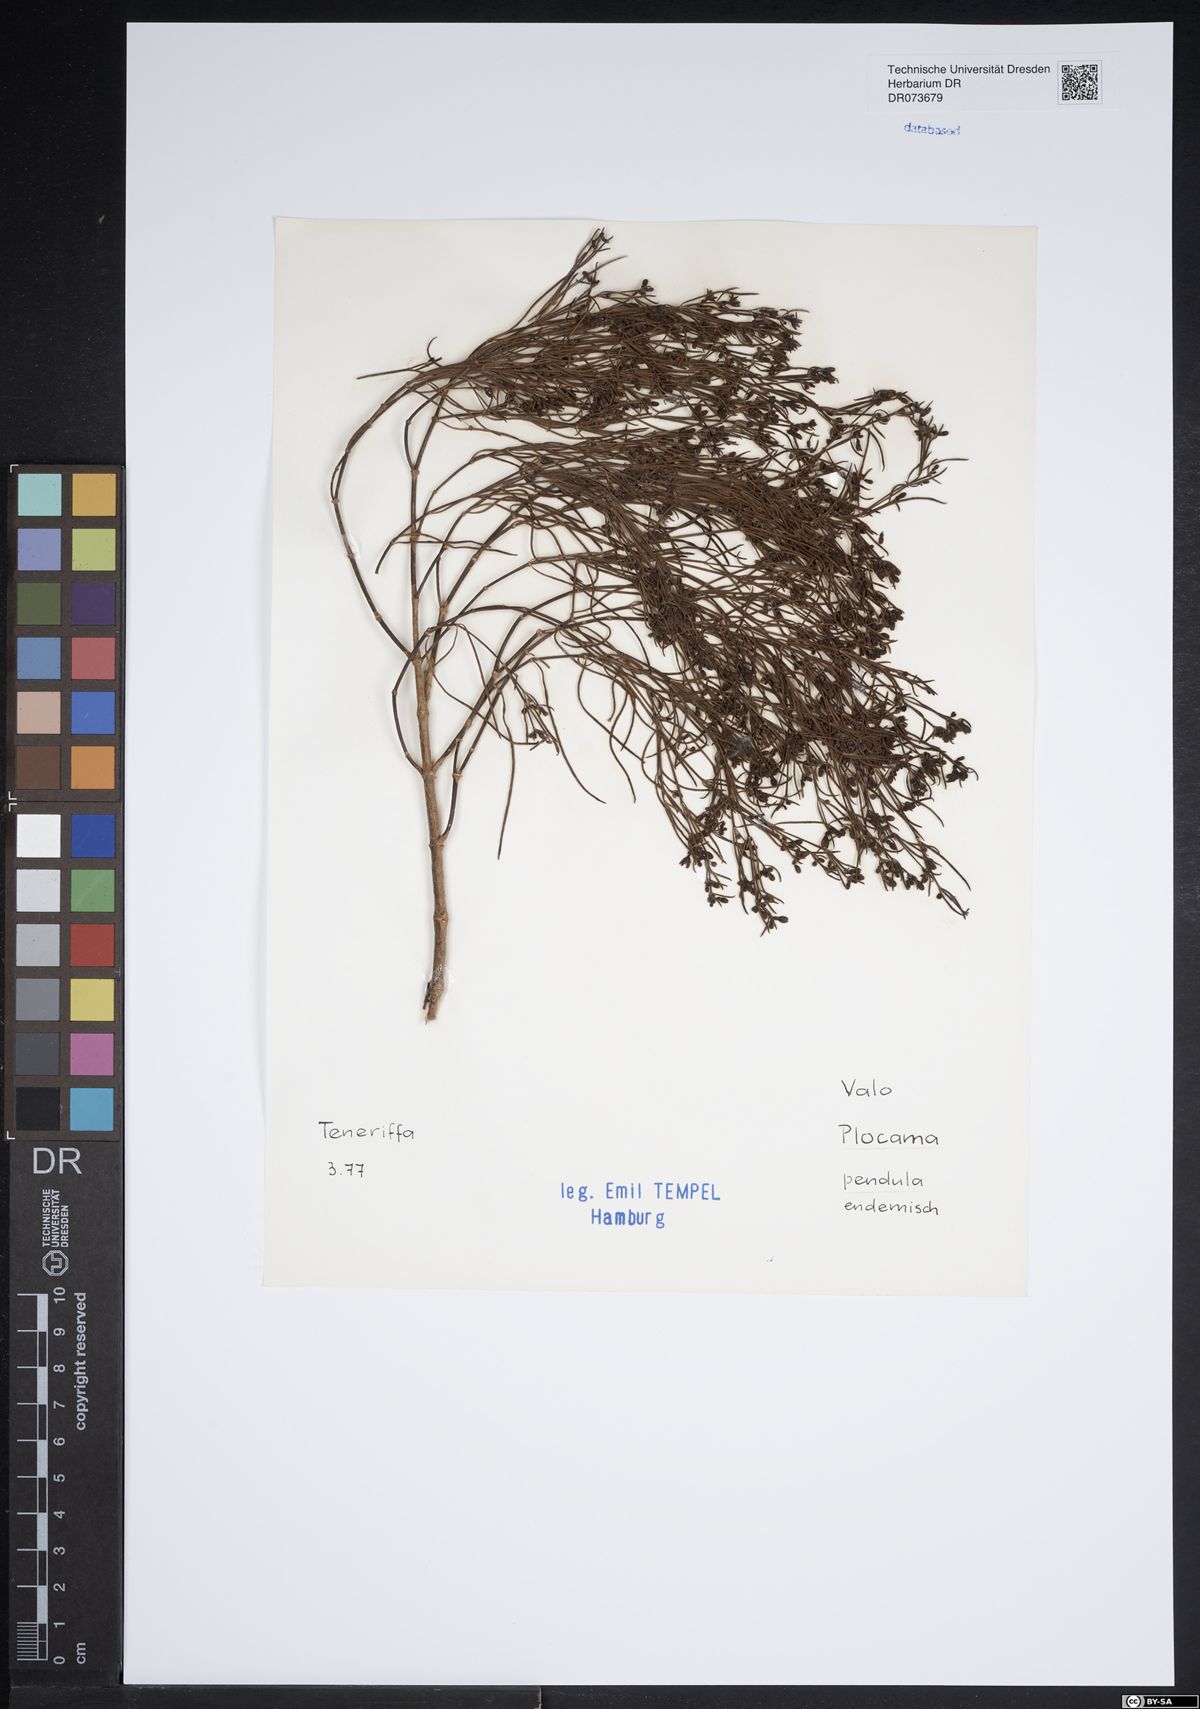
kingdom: Plantae
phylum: Tracheophyta
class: Magnoliopsida
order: Gentianales
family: Rubiaceae
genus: Plocama
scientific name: Plocama pendula
